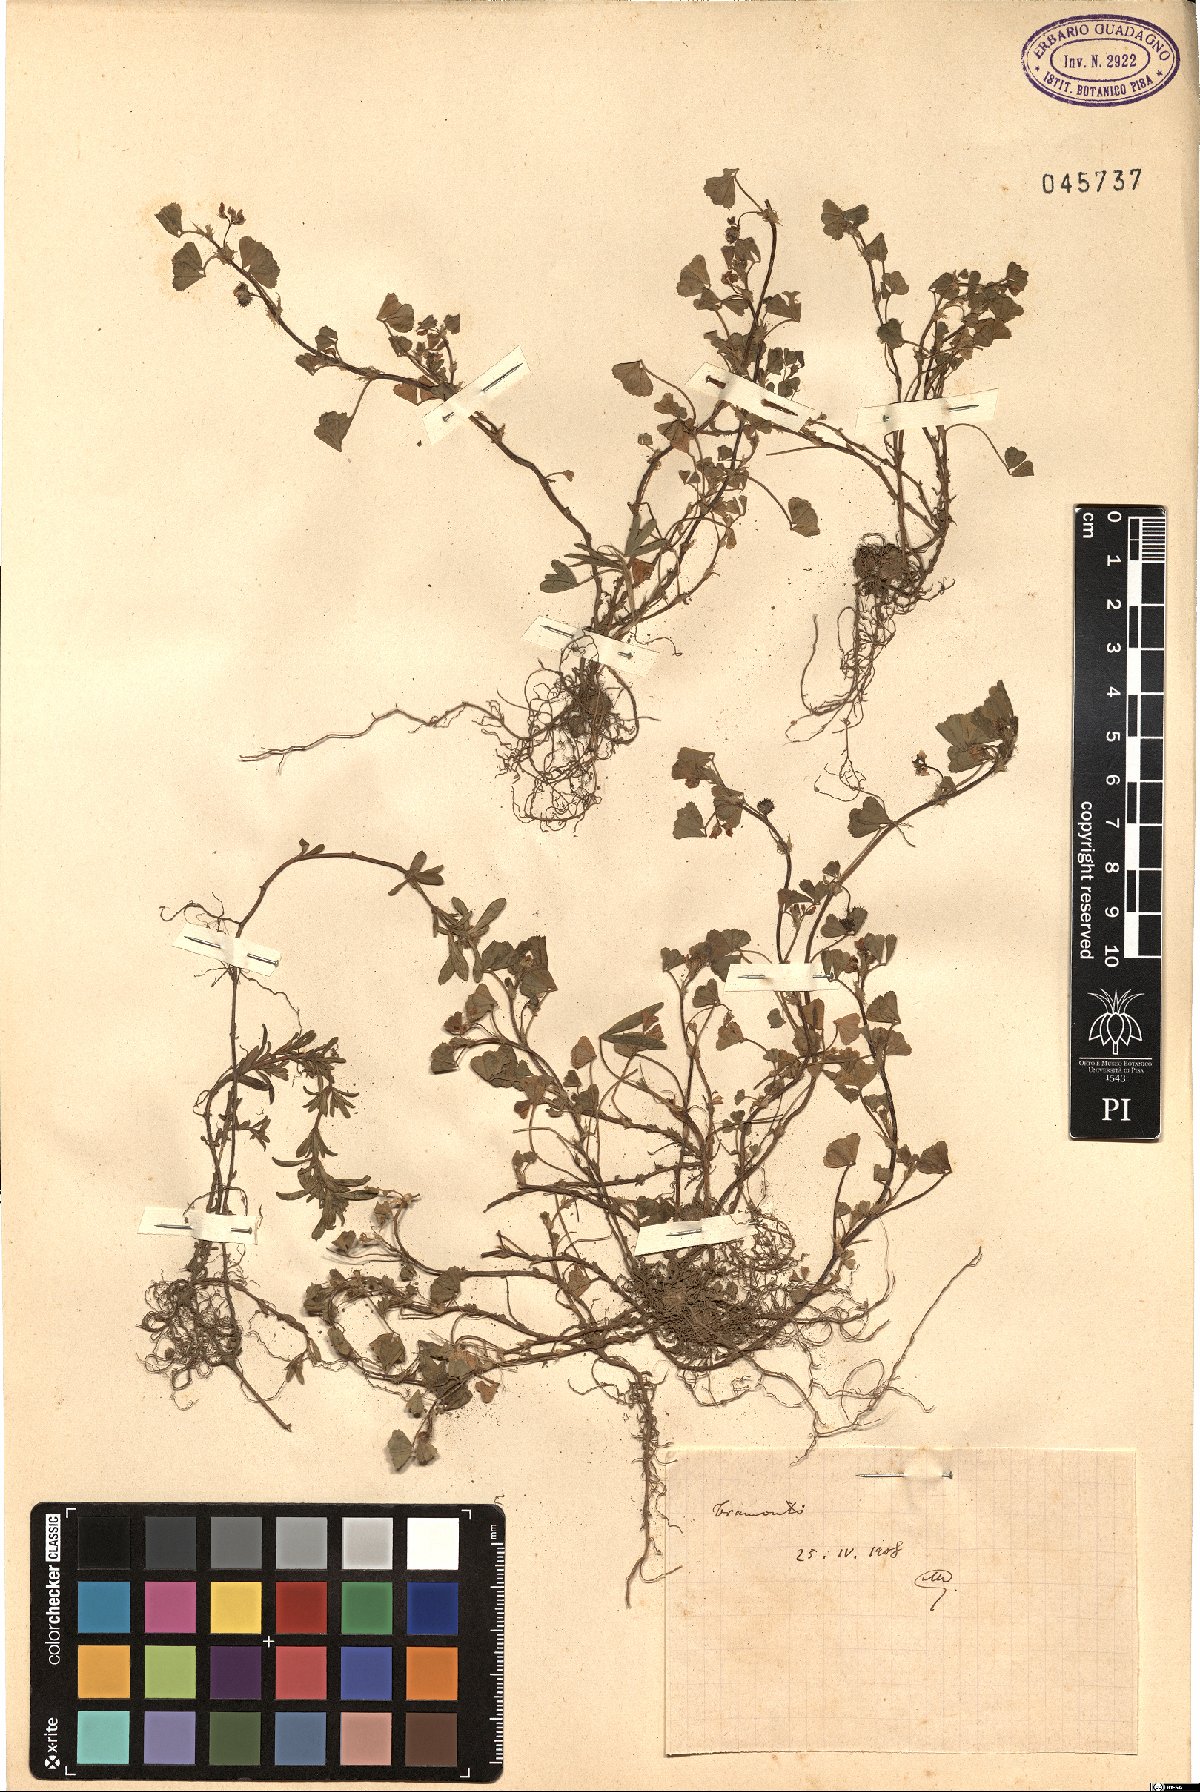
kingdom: Plantae
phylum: Tracheophyta
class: Magnoliopsida
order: Fabales
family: Fabaceae
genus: Medicago
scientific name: Medicago
